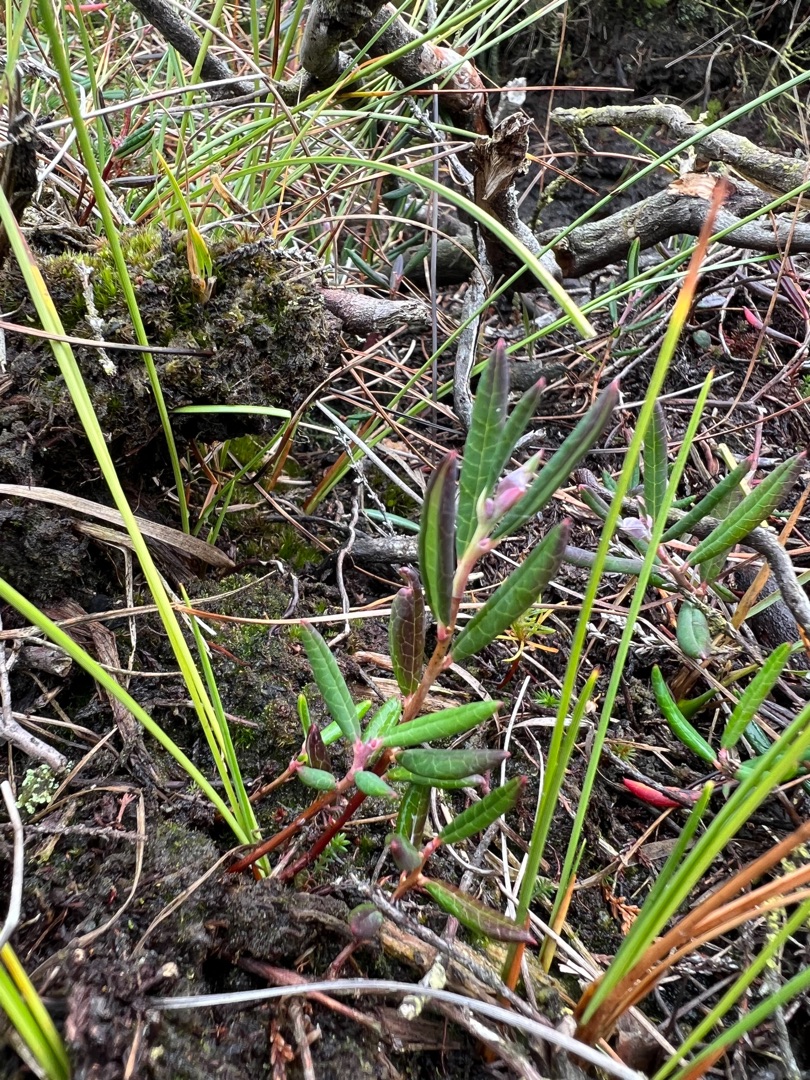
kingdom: Plantae
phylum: Tracheophyta
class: Magnoliopsida
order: Ericales
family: Ericaceae
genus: Andromeda
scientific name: Andromeda polifolia
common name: Rosmarinlyng
